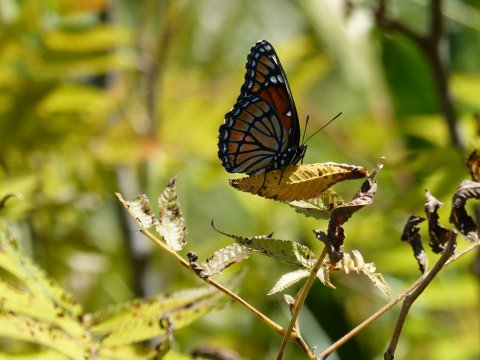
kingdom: Animalia
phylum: Arthropoda
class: Insecta
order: Lepidoptera
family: Nymphalidae
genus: Limenitis
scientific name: Limenitis archippus
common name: Viceroy
